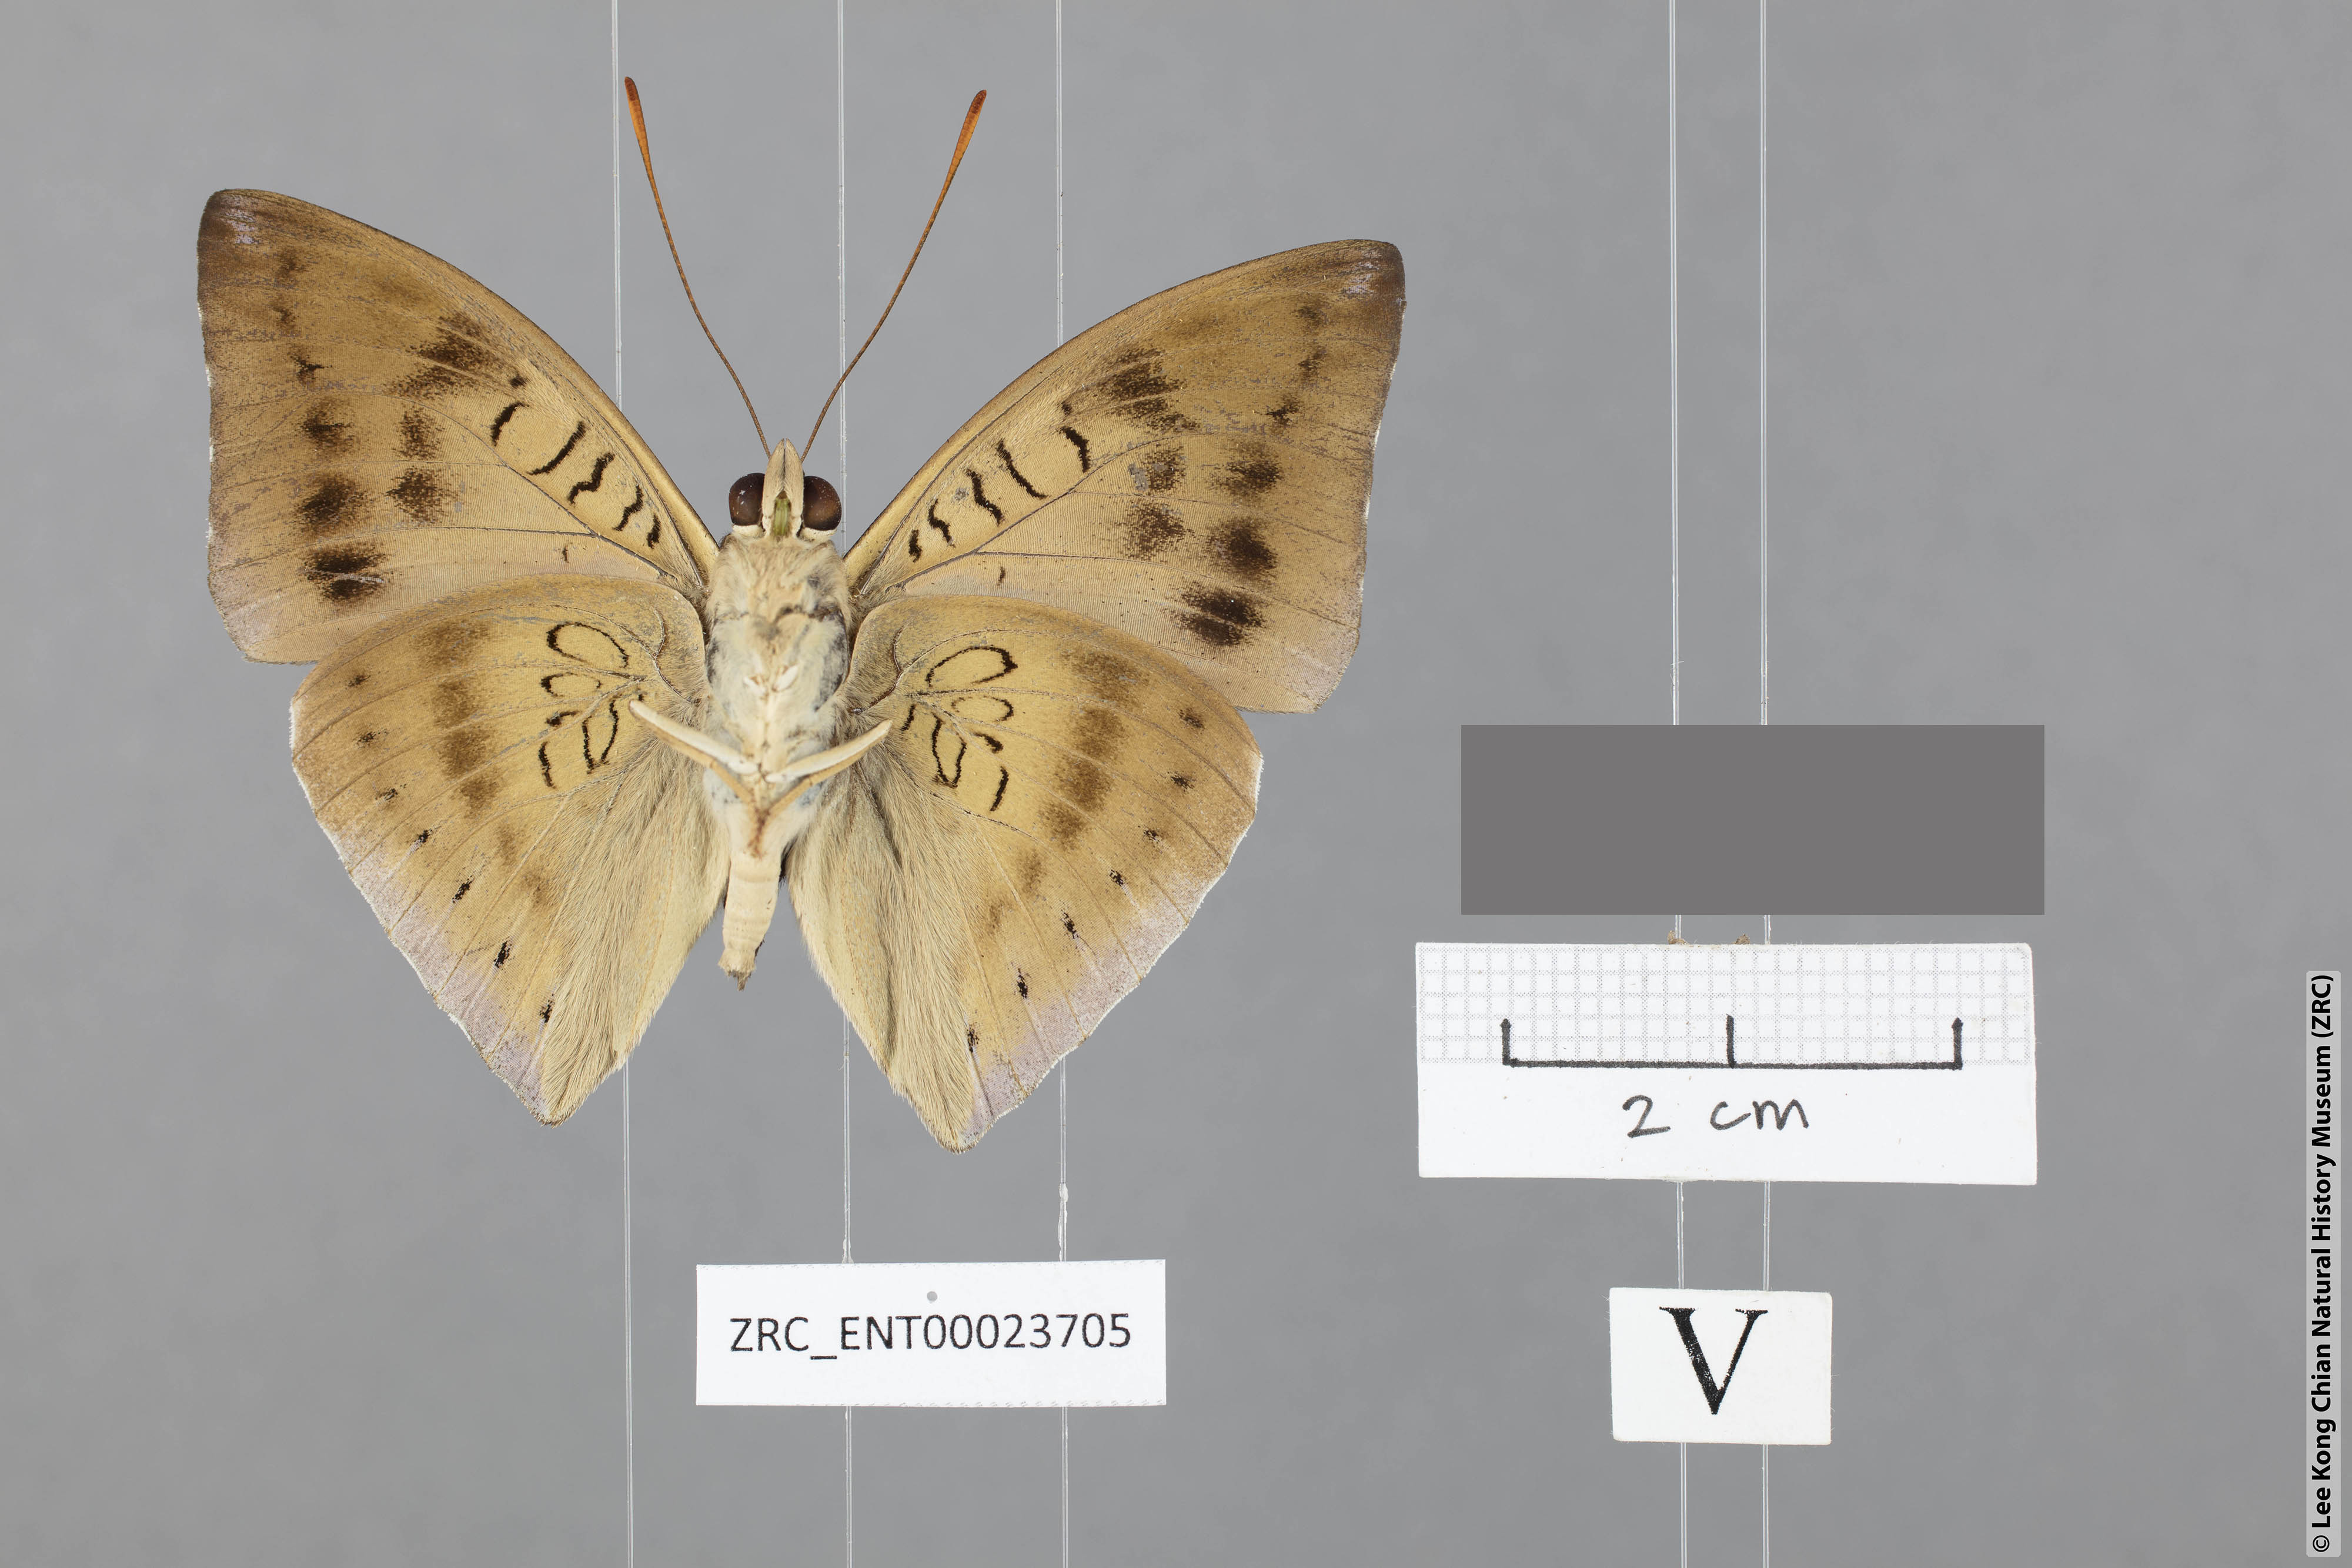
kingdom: Animalia
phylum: Arthropoda
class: Insecta
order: Lepidoptera
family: Nymphalidae
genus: Euthalia
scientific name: Euthalia mahadeva
